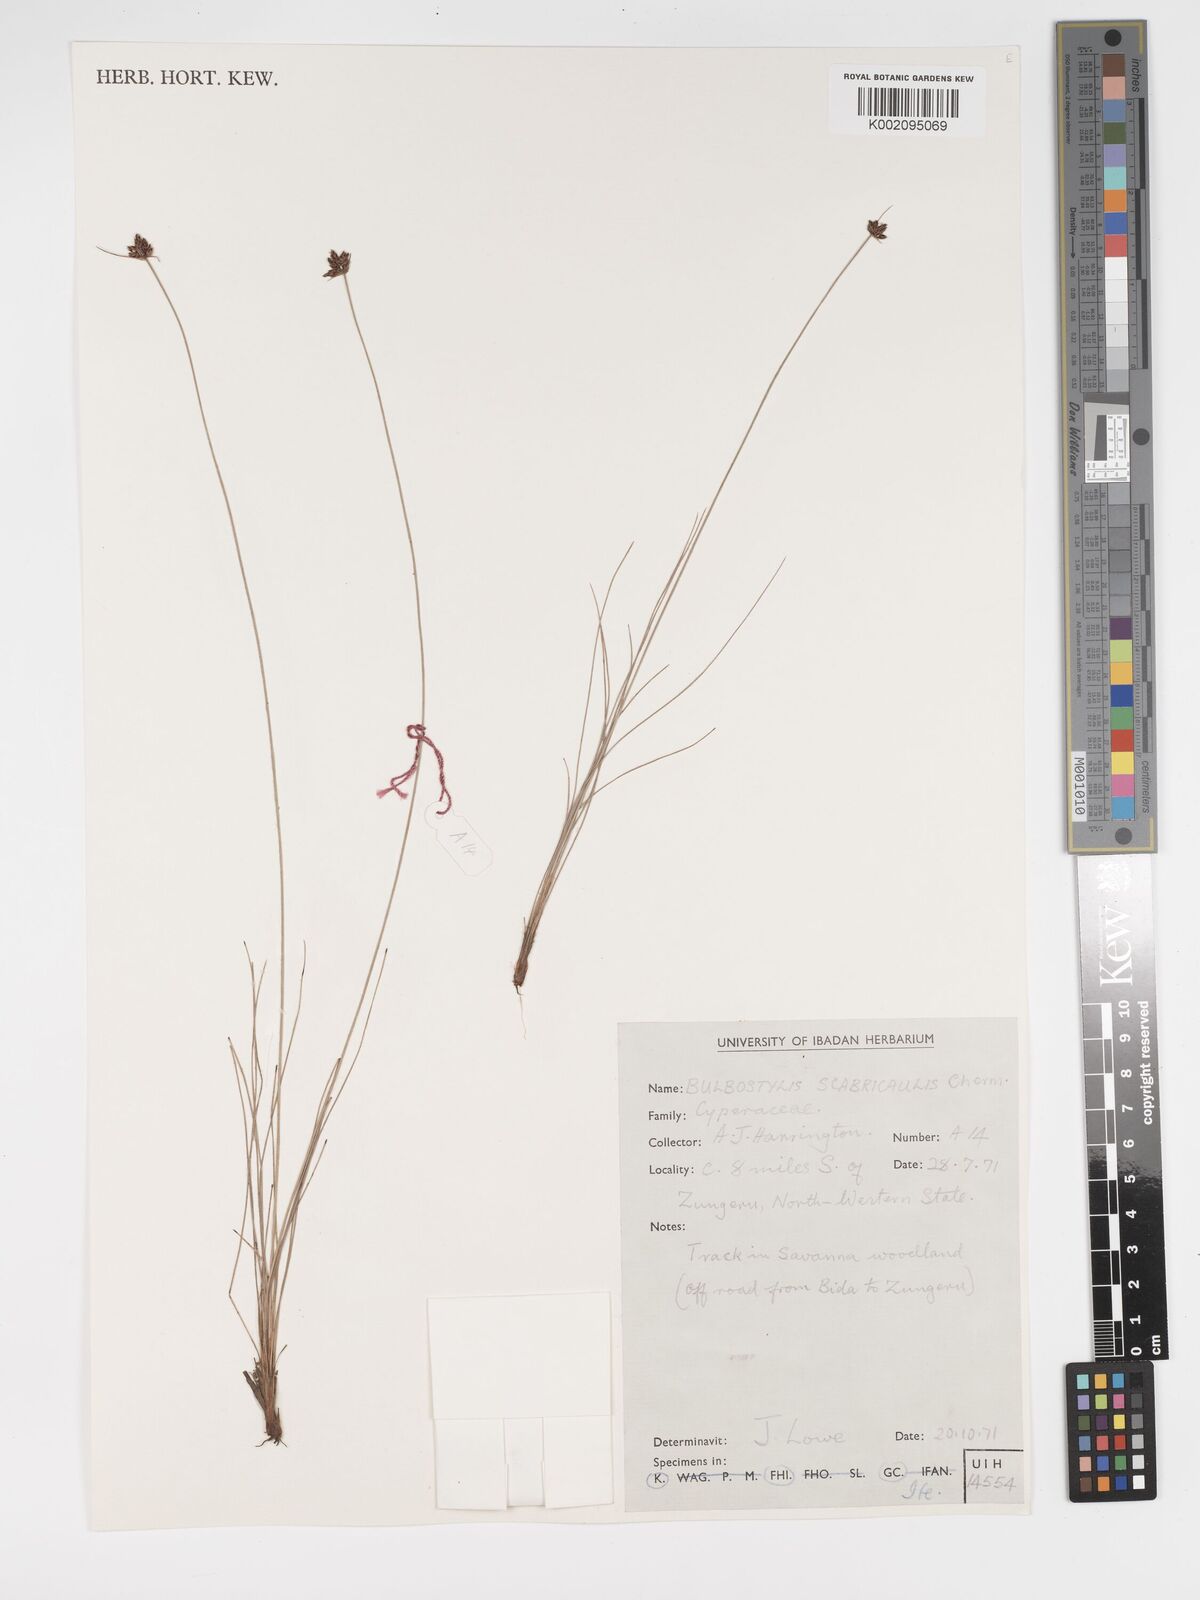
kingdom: Plantae
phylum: Tracheophyta
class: Liliopsida
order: Poales
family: Cyperaceae
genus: Bulbostylis
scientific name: Bulbostylis scabricaulis
